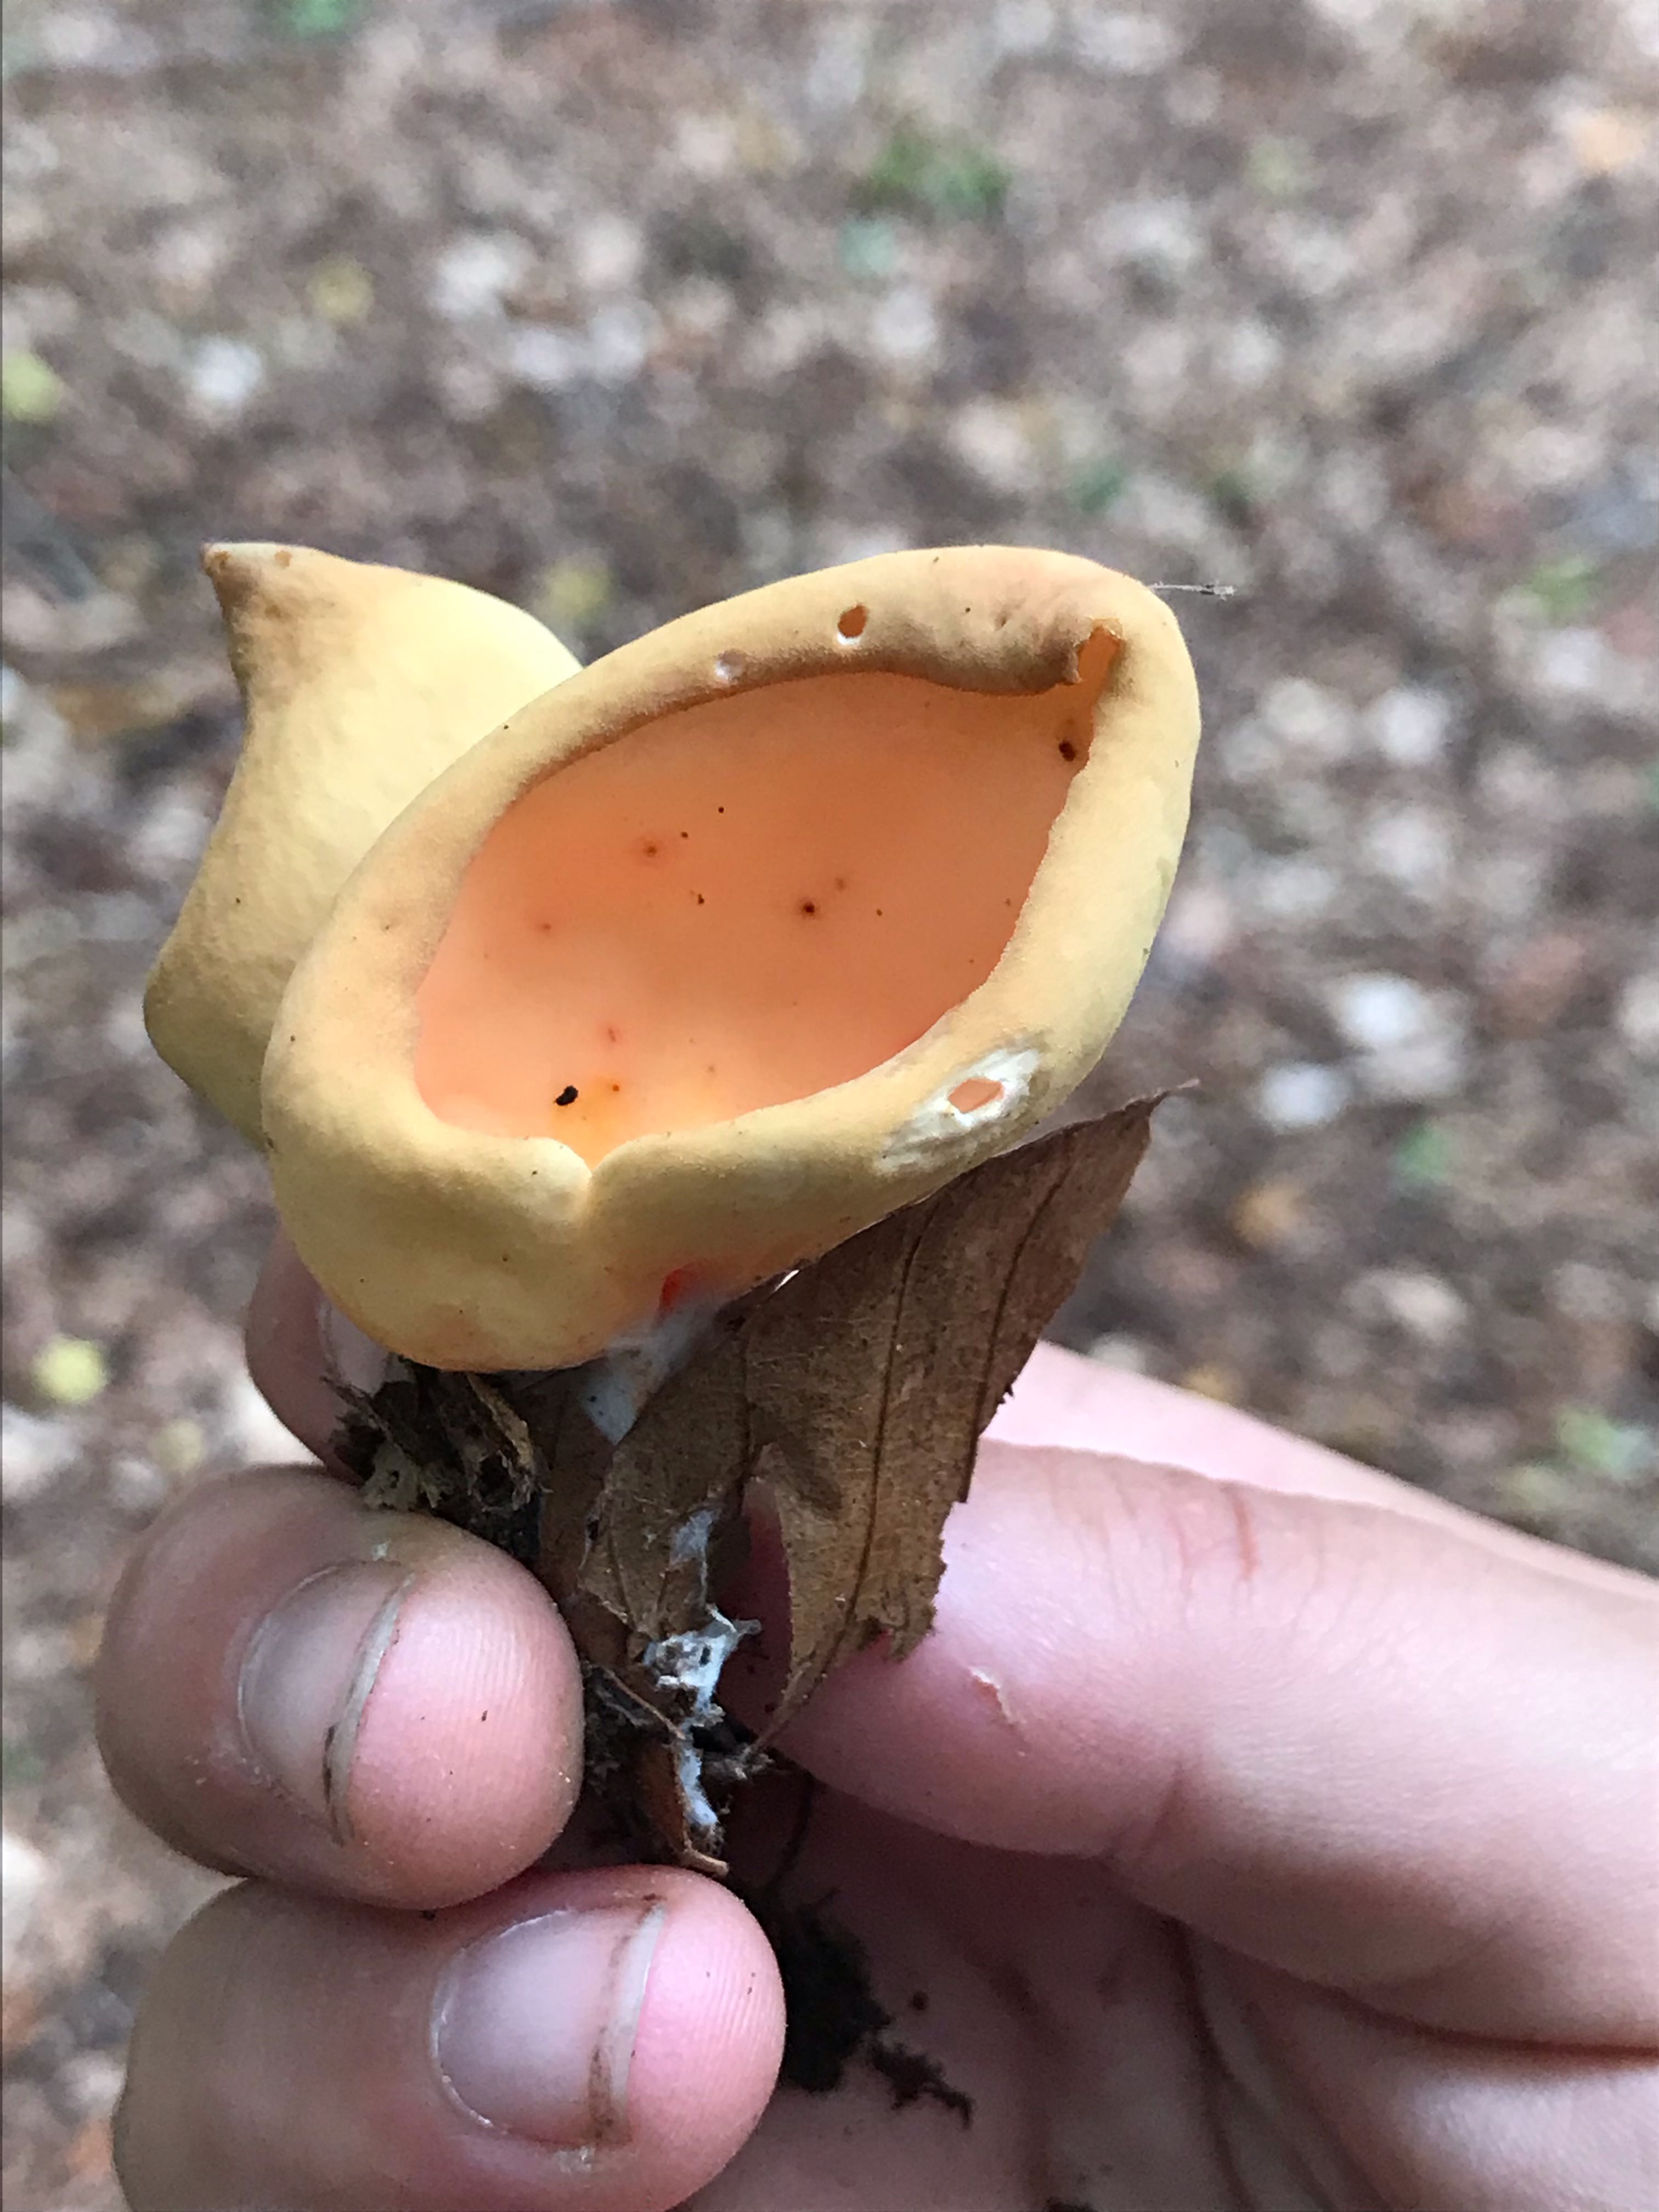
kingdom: Fungi
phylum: Ascomycota
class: Pezizomycetes
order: Pezizales
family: Otideaceae
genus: Otidea
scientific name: Otidea onotica
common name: æsel-ørebæger
